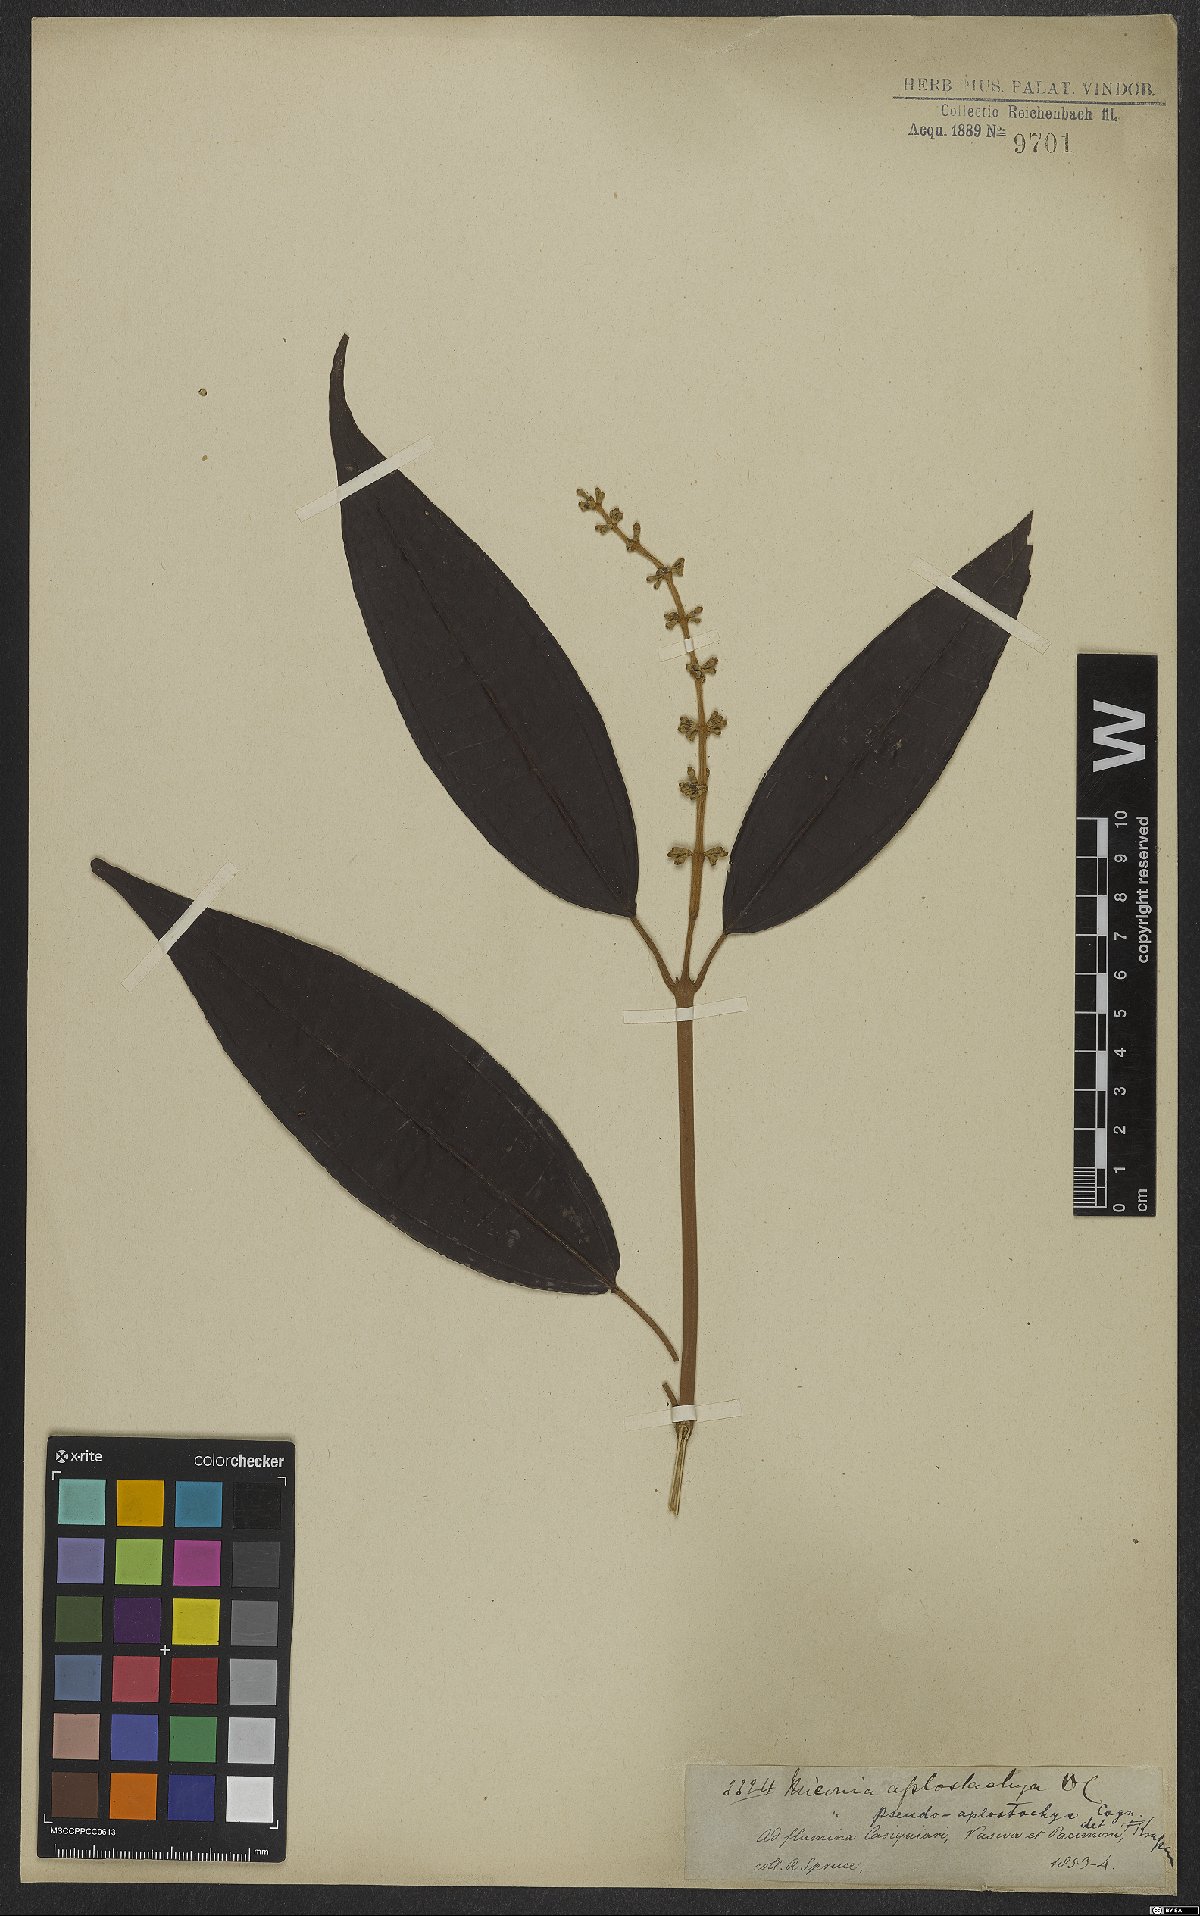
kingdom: Plantae
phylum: Tracheophyta
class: Magnoliopsida
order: Myrtales
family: Melastomataceae
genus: Miconia
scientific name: Miconia pseudoaplostachya
